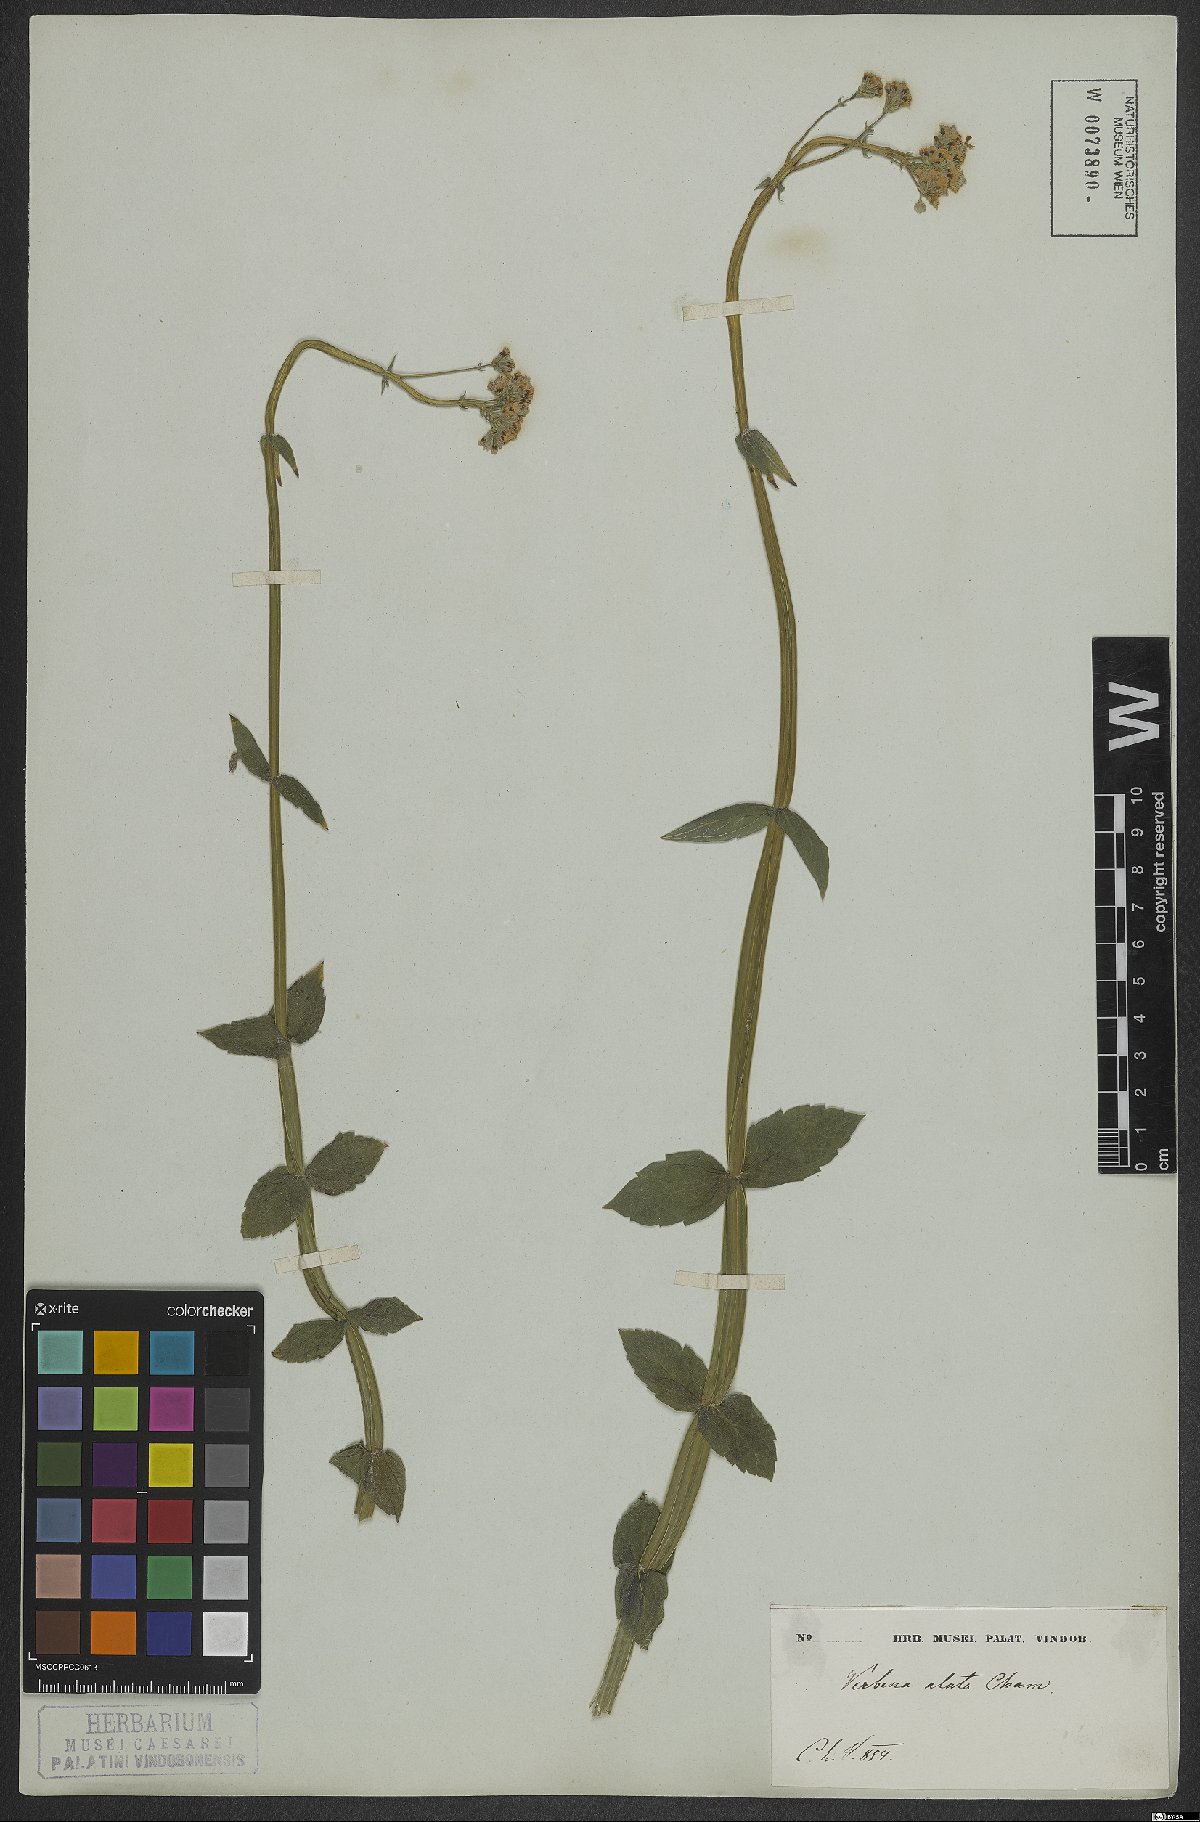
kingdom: Plantae
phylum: Tracheophyta
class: Magnoliopsida
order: Lamiales
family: Verbenaceae
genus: Verbena
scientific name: Verbena alata
